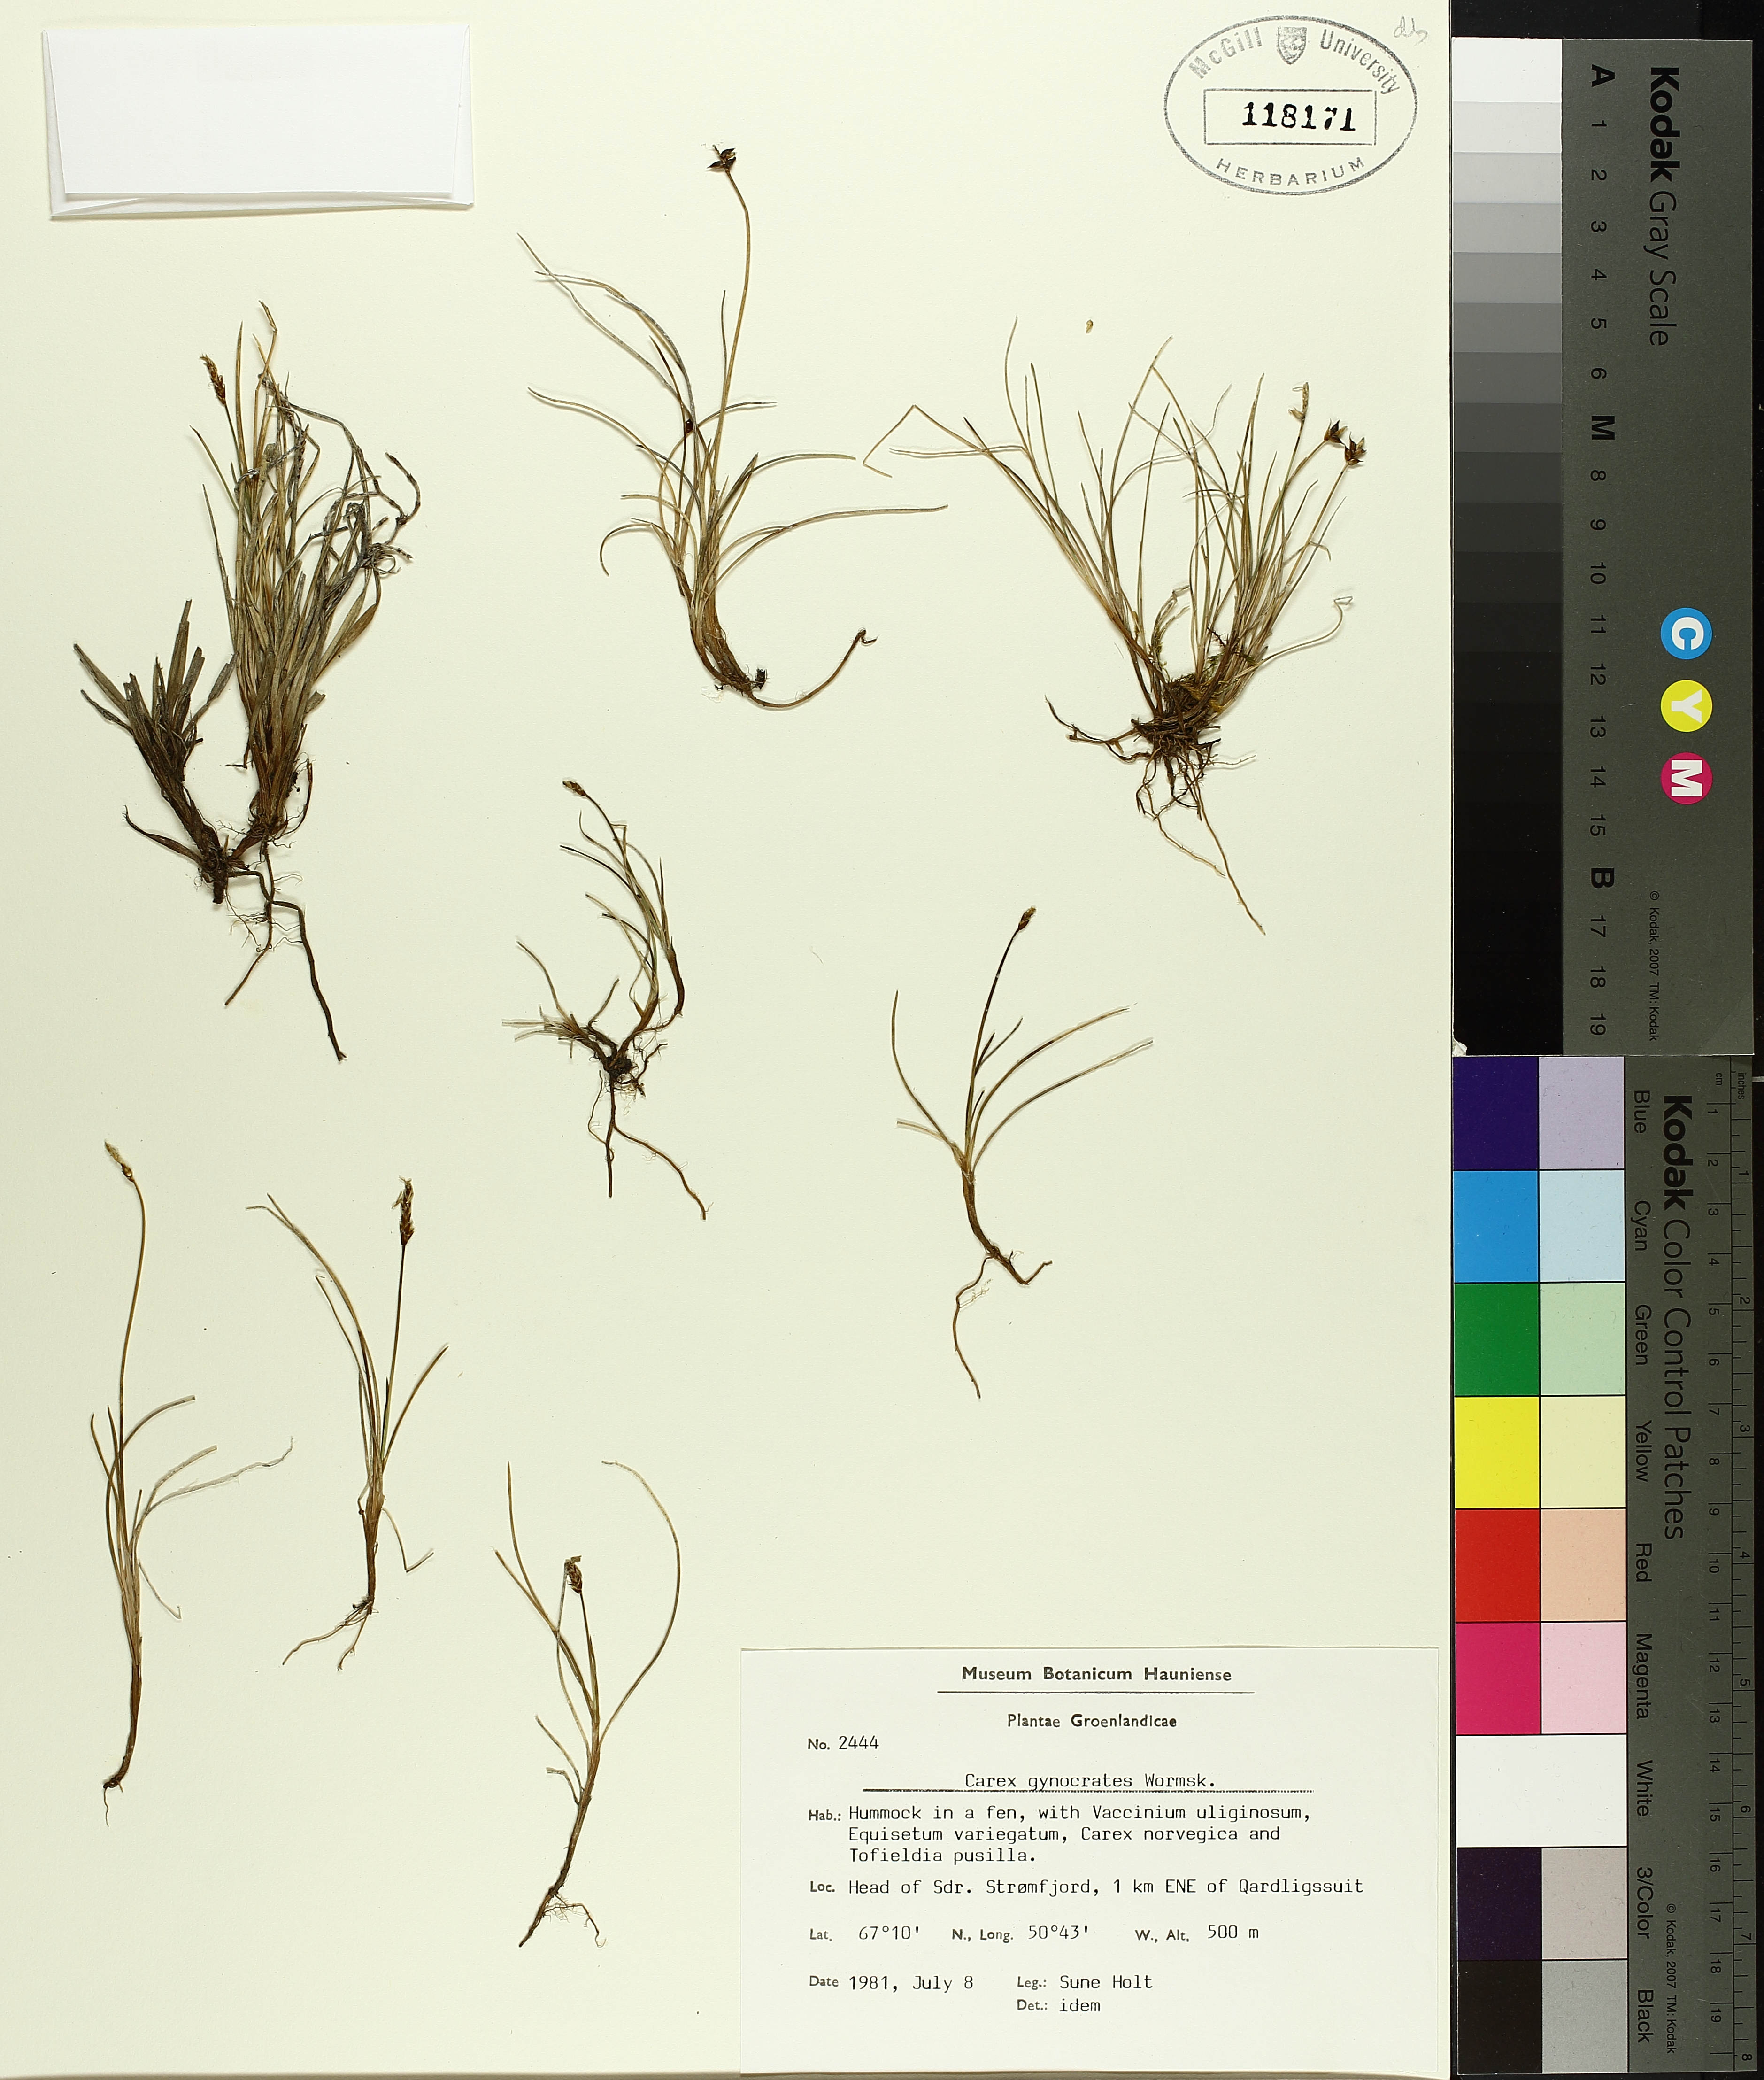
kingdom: Plantae
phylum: Tracheophyta
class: Liliopsida
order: Poales
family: Cyperaceae
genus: Carex
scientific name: Carex gynocrates
